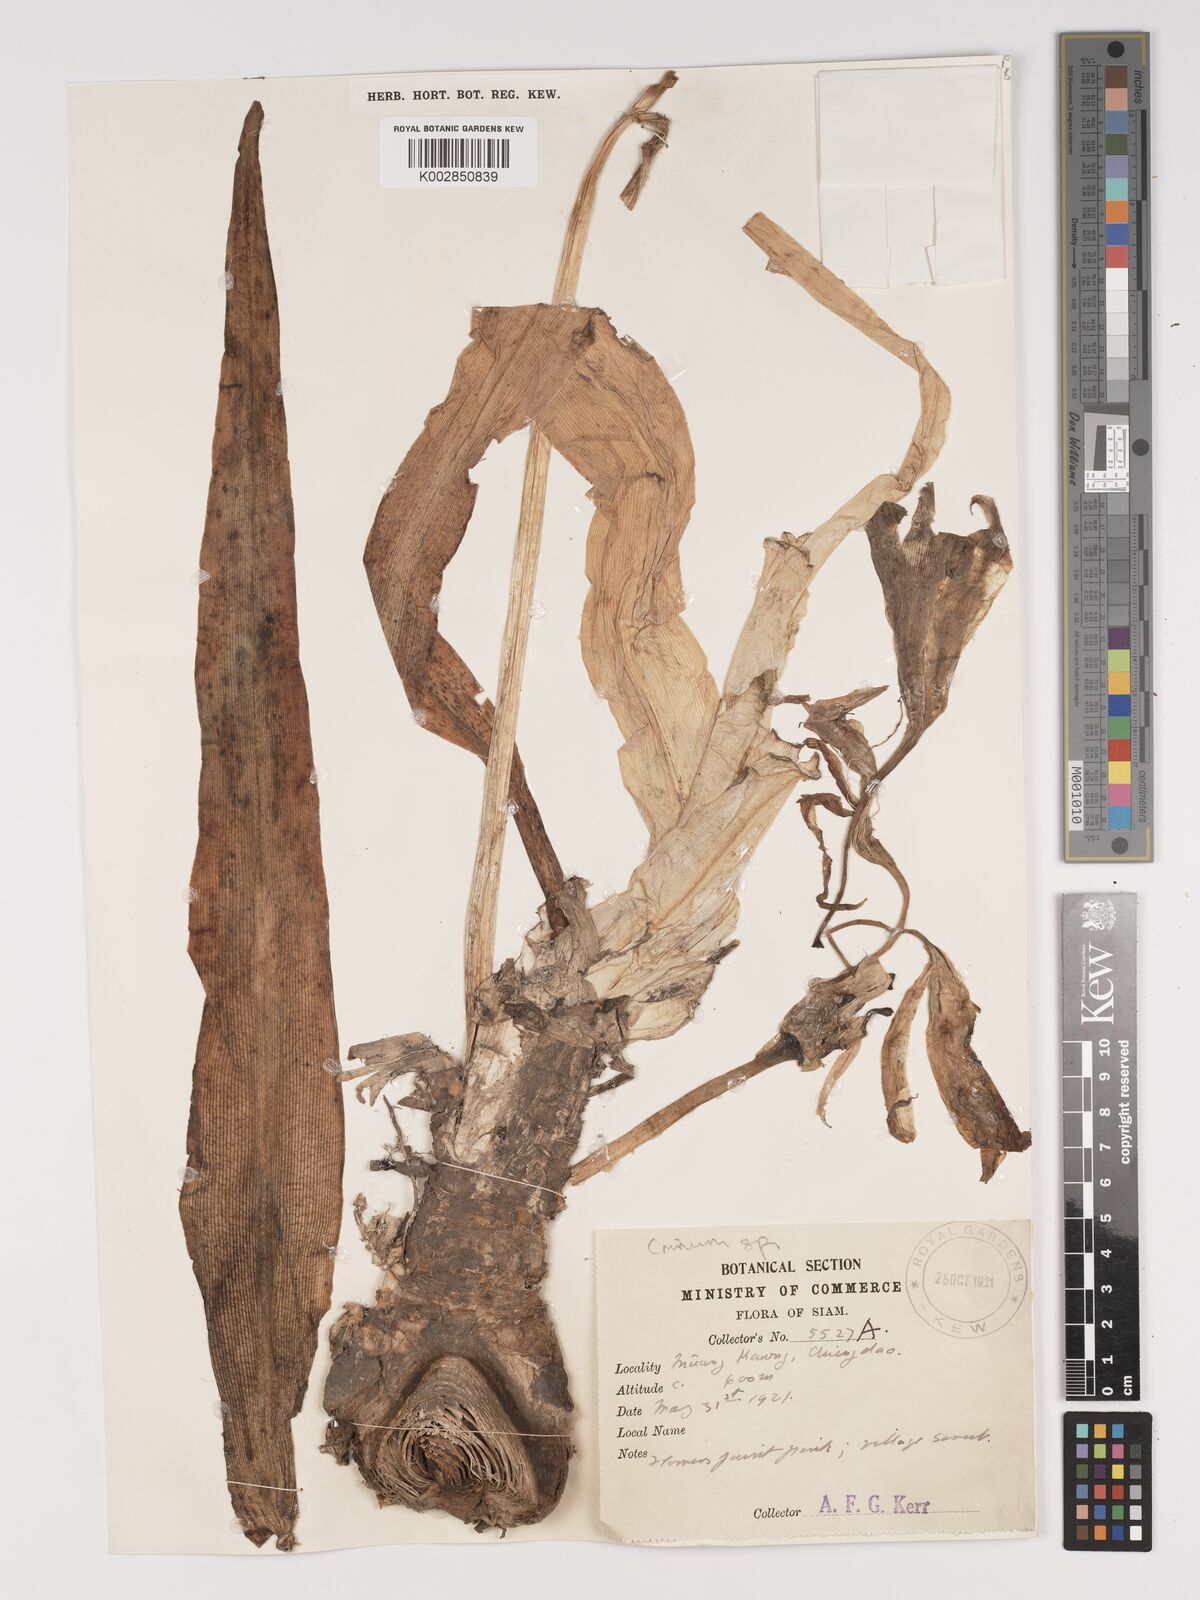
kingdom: Plantae
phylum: Tracheophyta
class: Liliopsida
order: Asparagales
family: Amaryllidaceae
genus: Crinum
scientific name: Crinum
